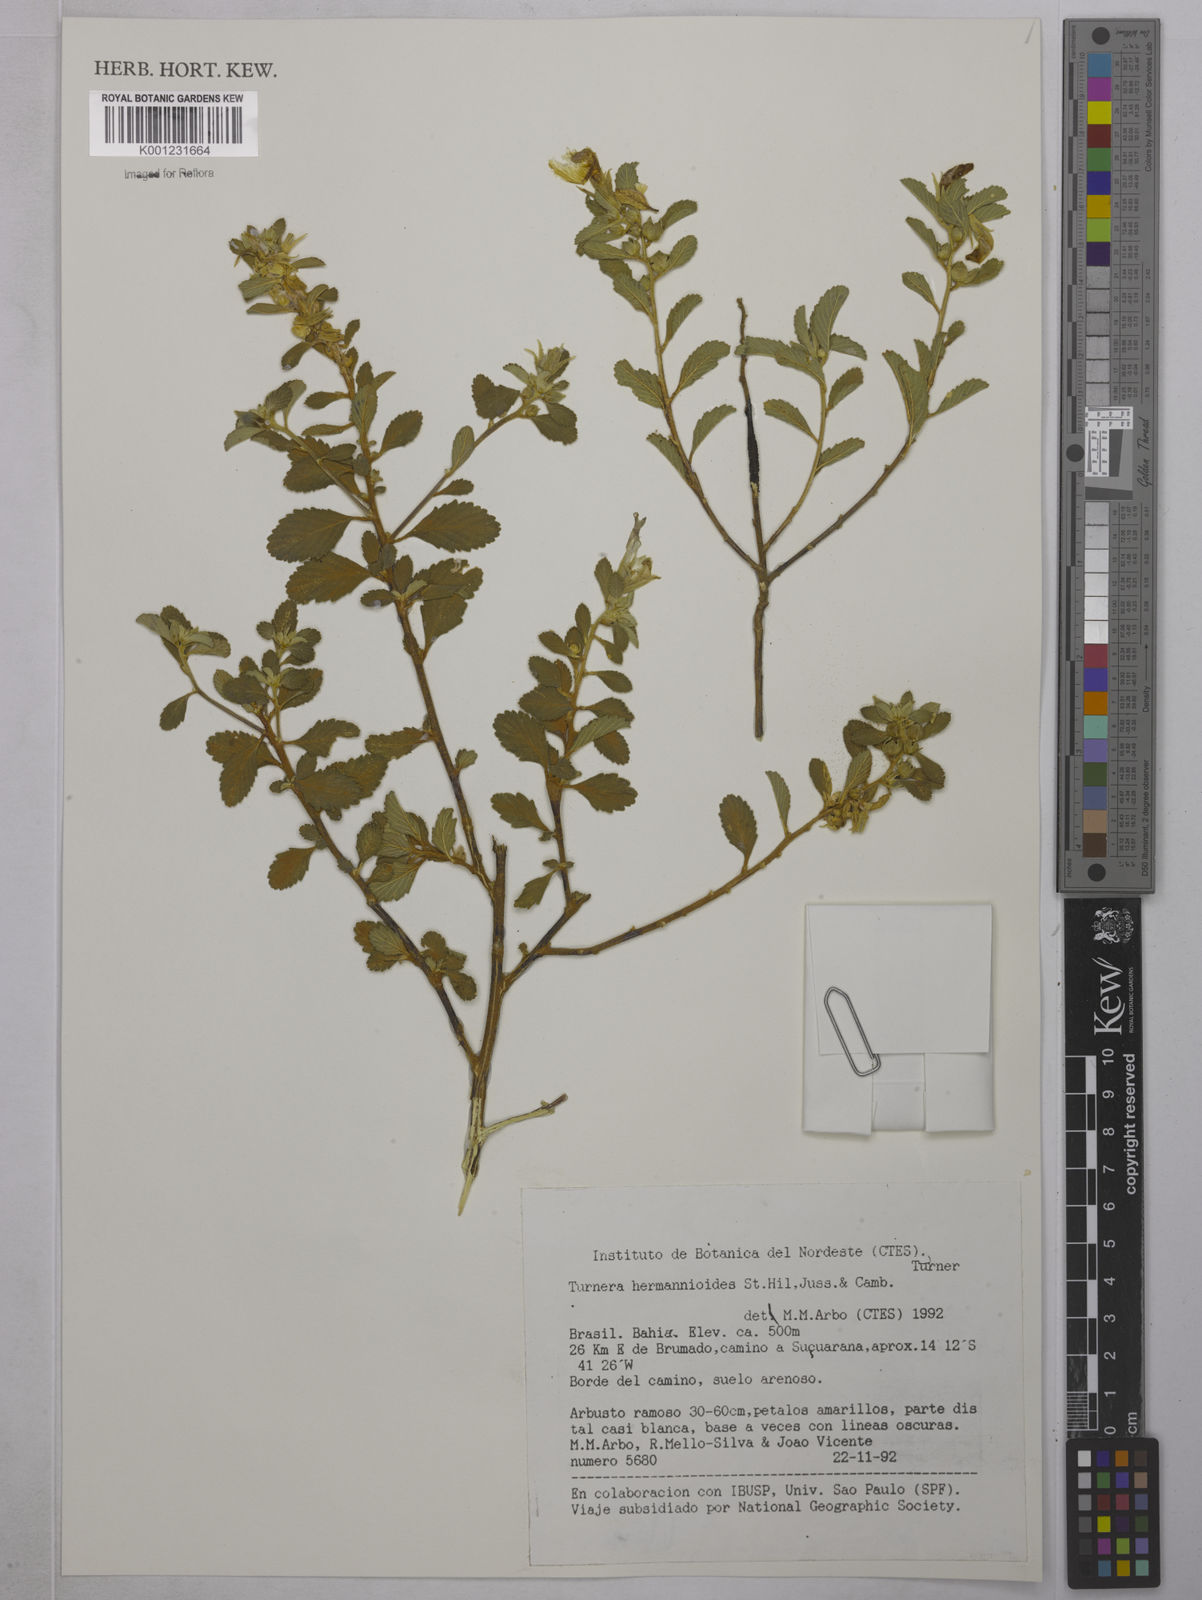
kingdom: Plantae
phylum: Tracheophyta
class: Magnoliopsida
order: Malpighiales
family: Turneraceae
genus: Turnera
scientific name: Turnera hermannioides
